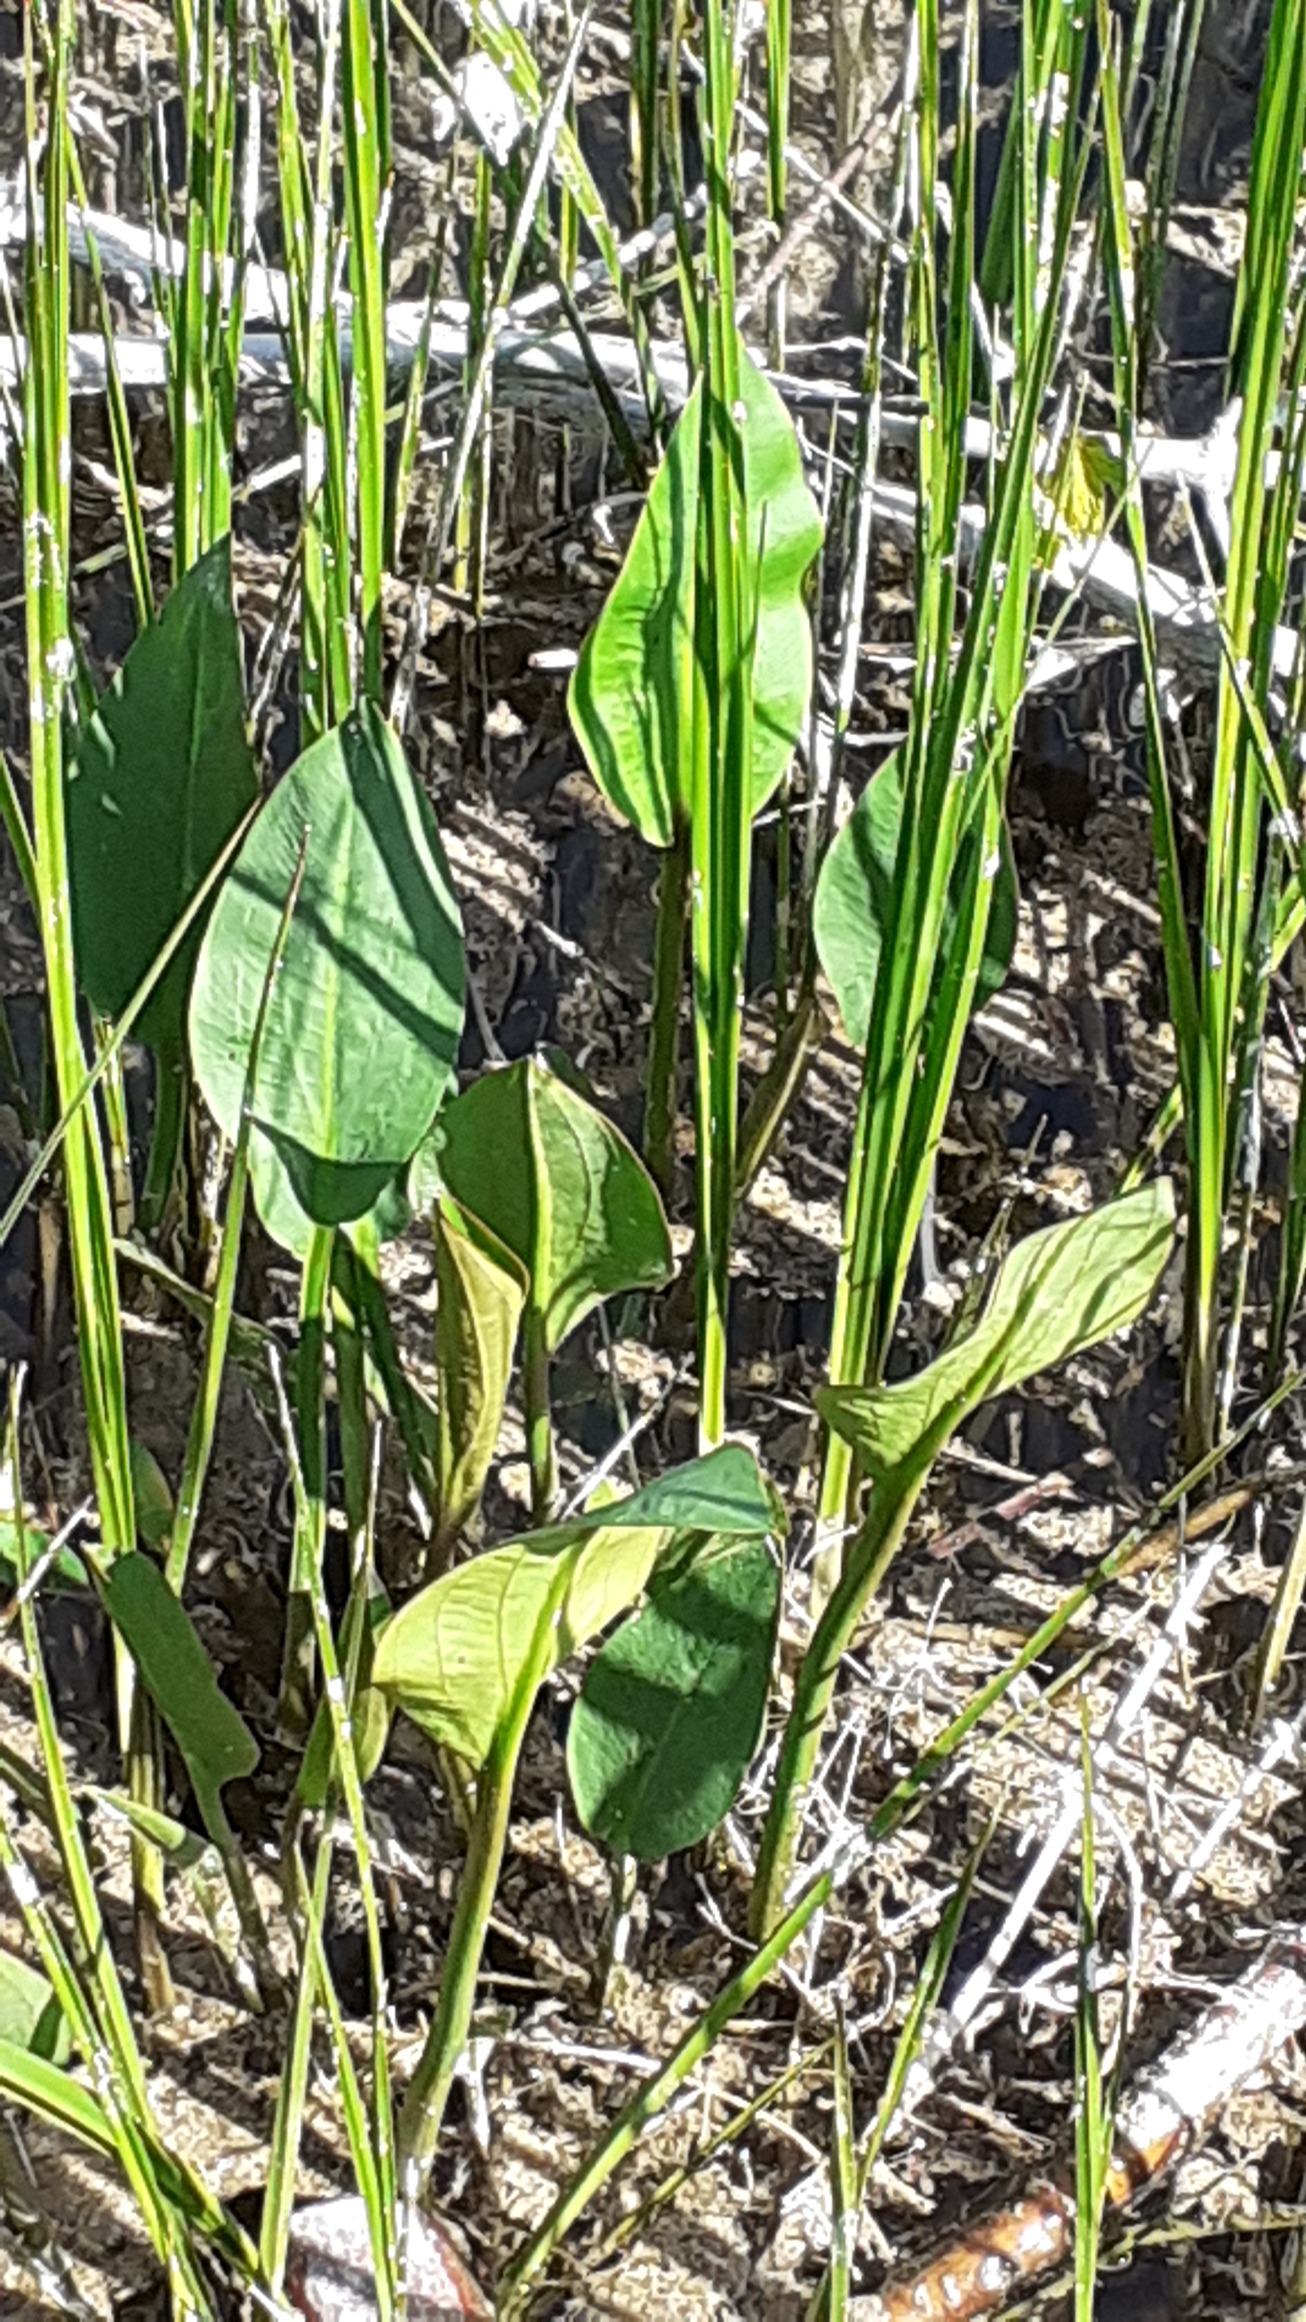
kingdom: Plantae
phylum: Tracheophyta
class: Liliopsida
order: Alismatales
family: Alismataceae
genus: Alisma
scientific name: Alisma plantago-aquatica
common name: Vejbred-skeblad
